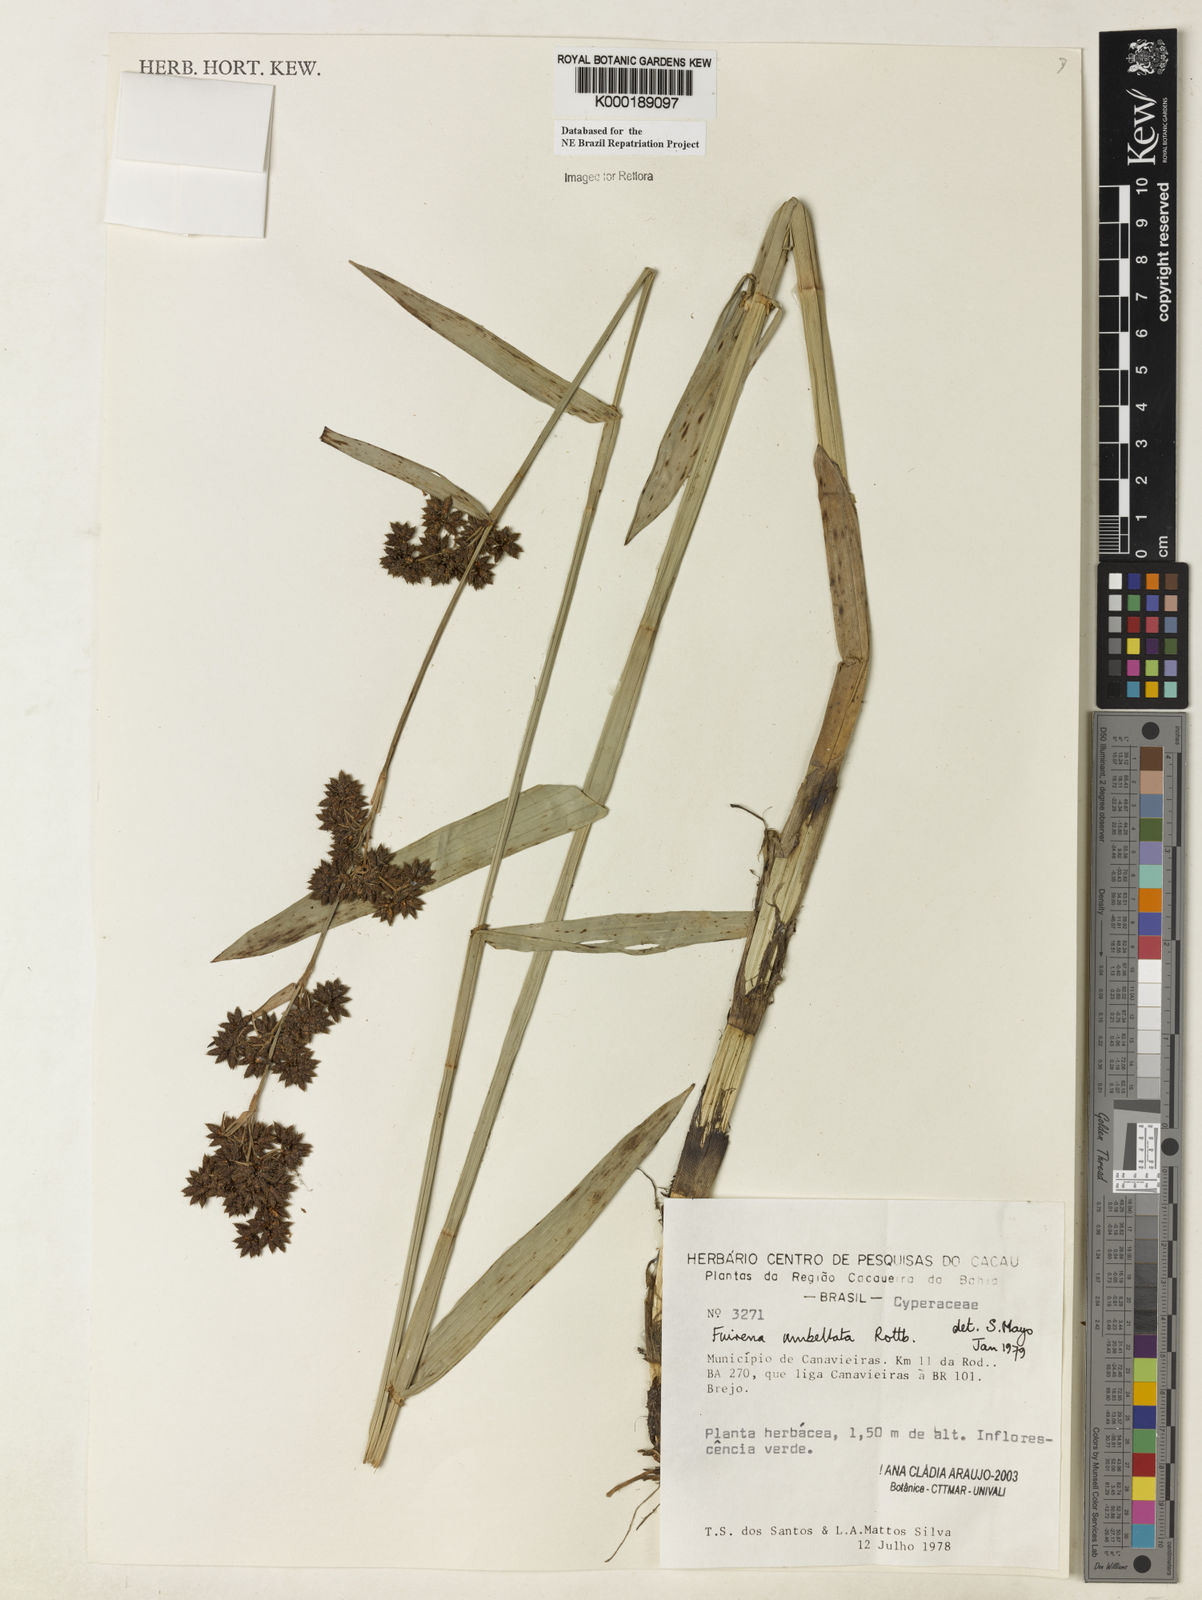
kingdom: Plantae
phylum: Tracheophyta
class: Liliopsida
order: Poales
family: Cyperaceae
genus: Fuirena
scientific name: Fuirena umbellata
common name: Yefen
